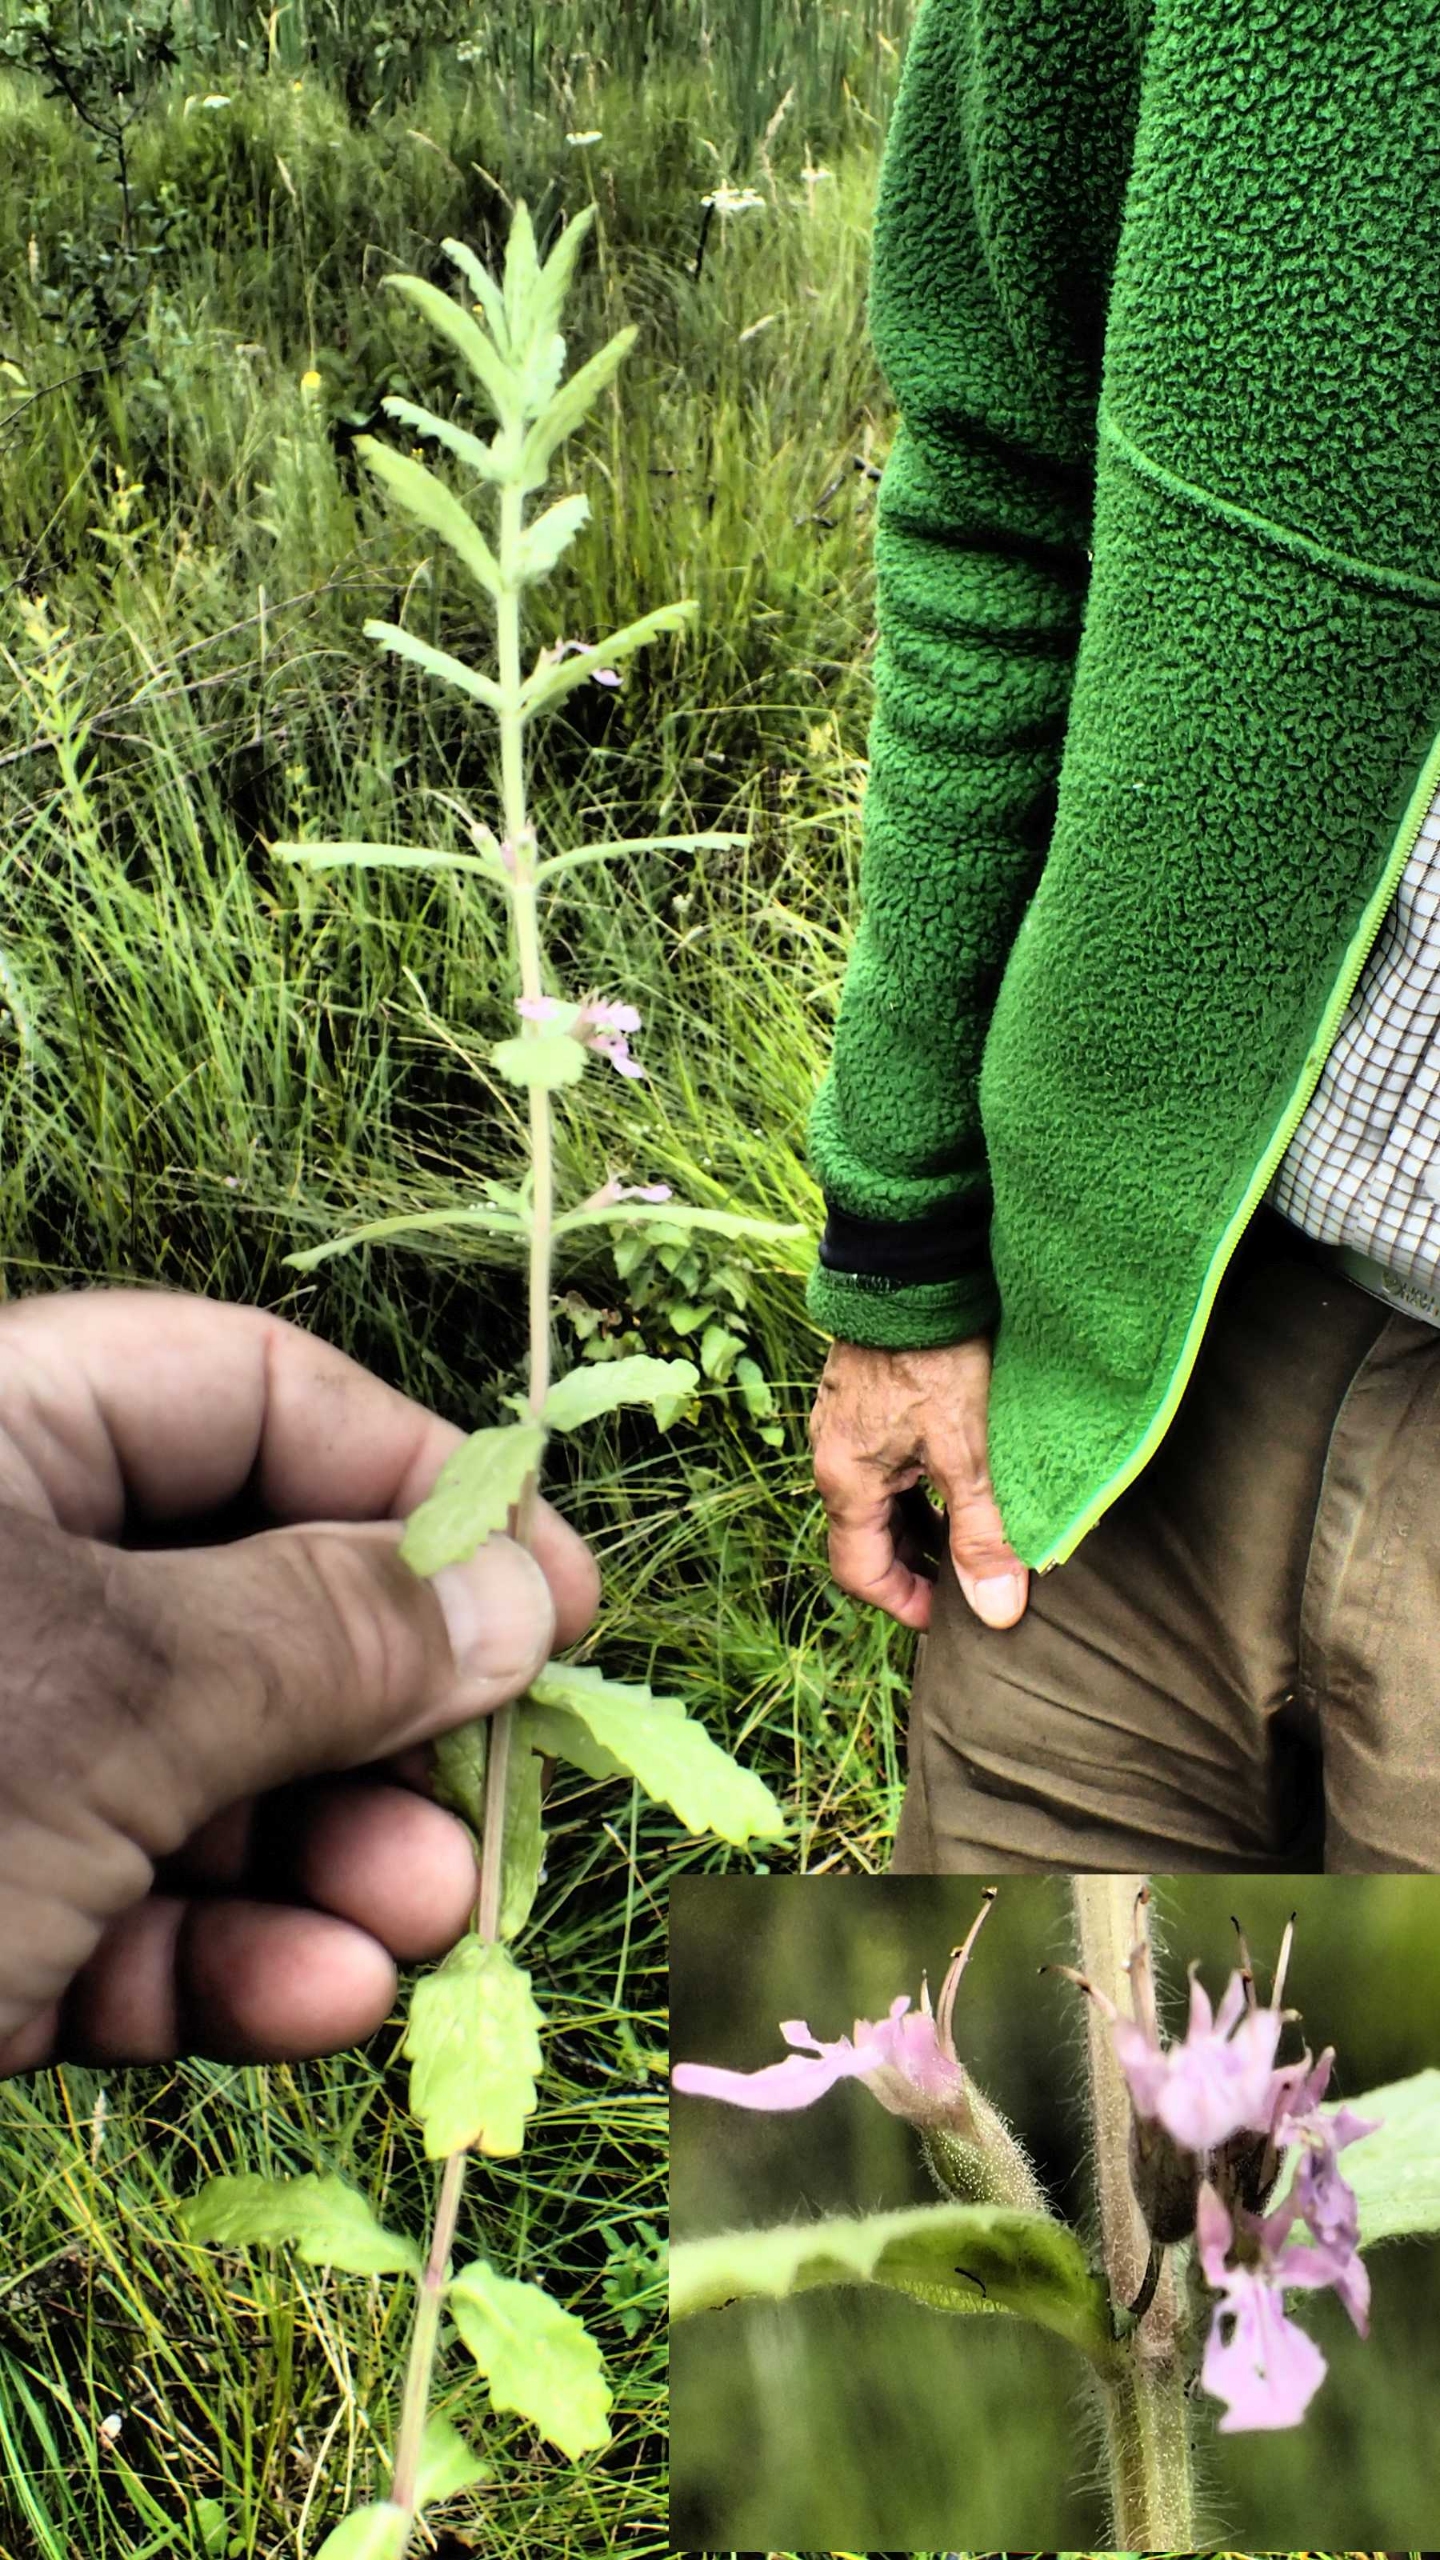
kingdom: Plantae
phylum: Tracheophyta
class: Magnoliopsida
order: Lamiales
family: Lamiaceae
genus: Teucrium
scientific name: Teucrium scordium
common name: Løgurt
